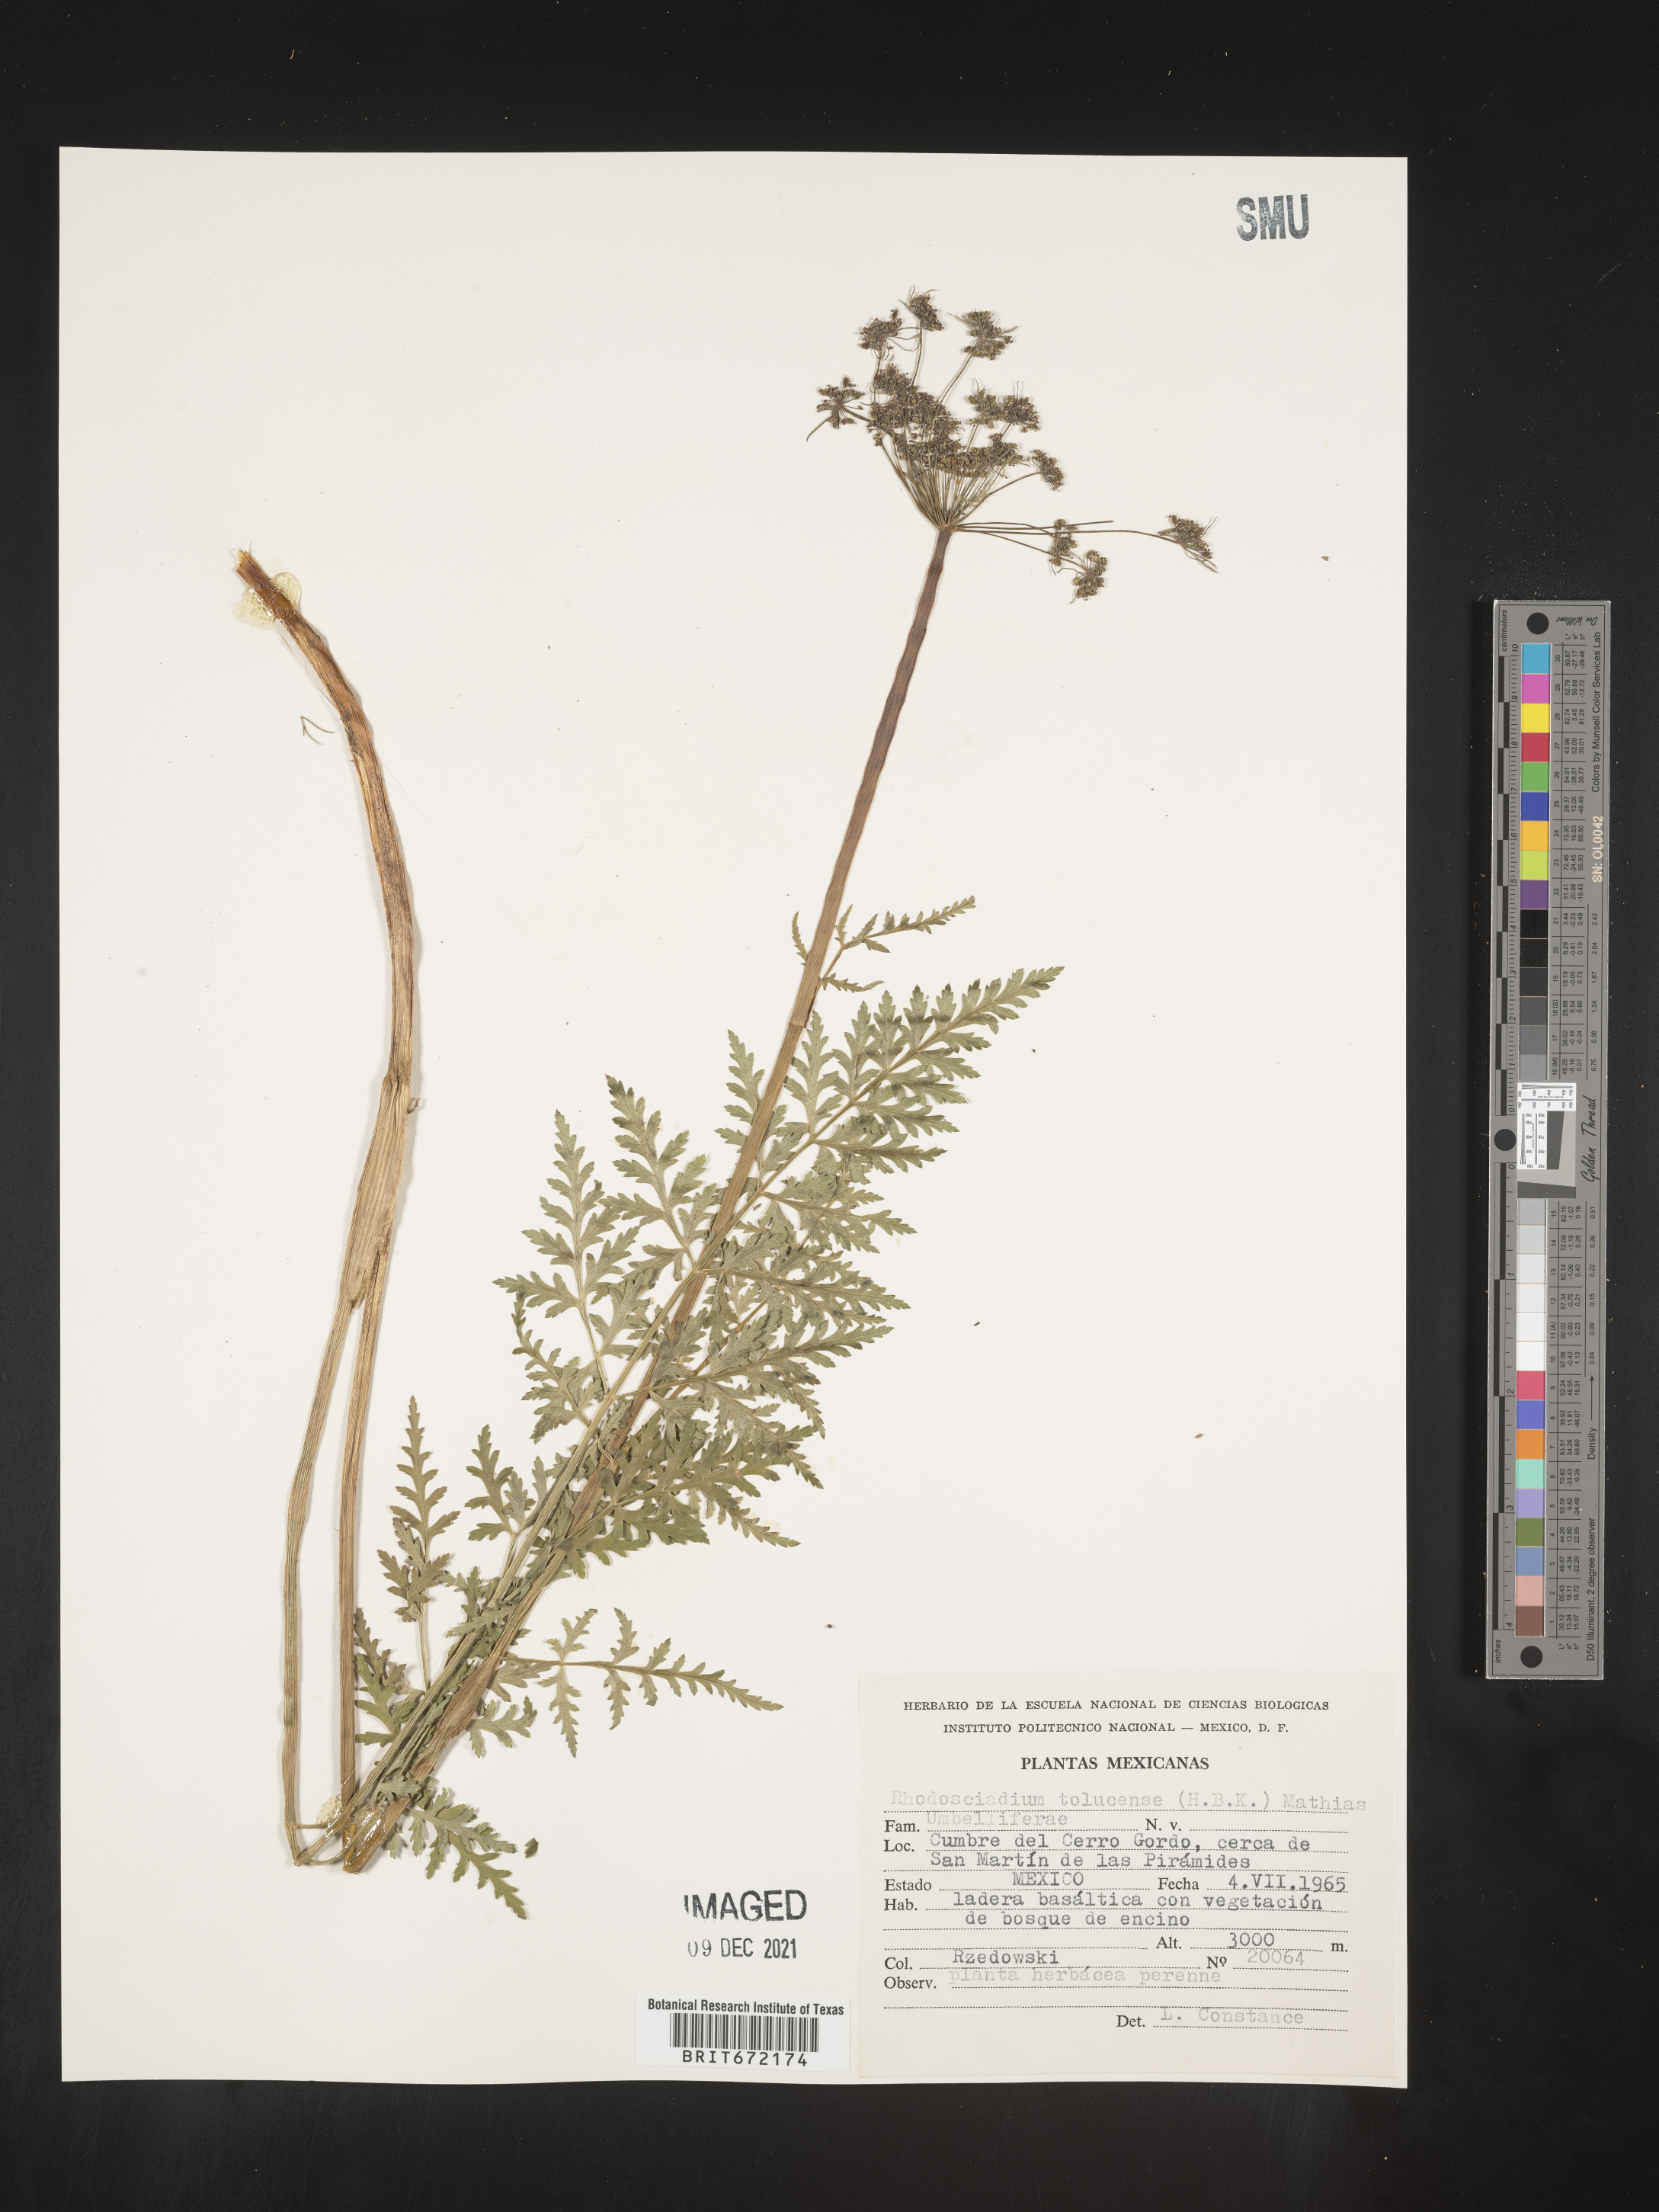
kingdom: Plantae
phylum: Tracheophyta
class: Magnoliopsida
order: Apiales
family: Apiaceae
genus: Rhodosciadium
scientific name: Rhodosciadium
